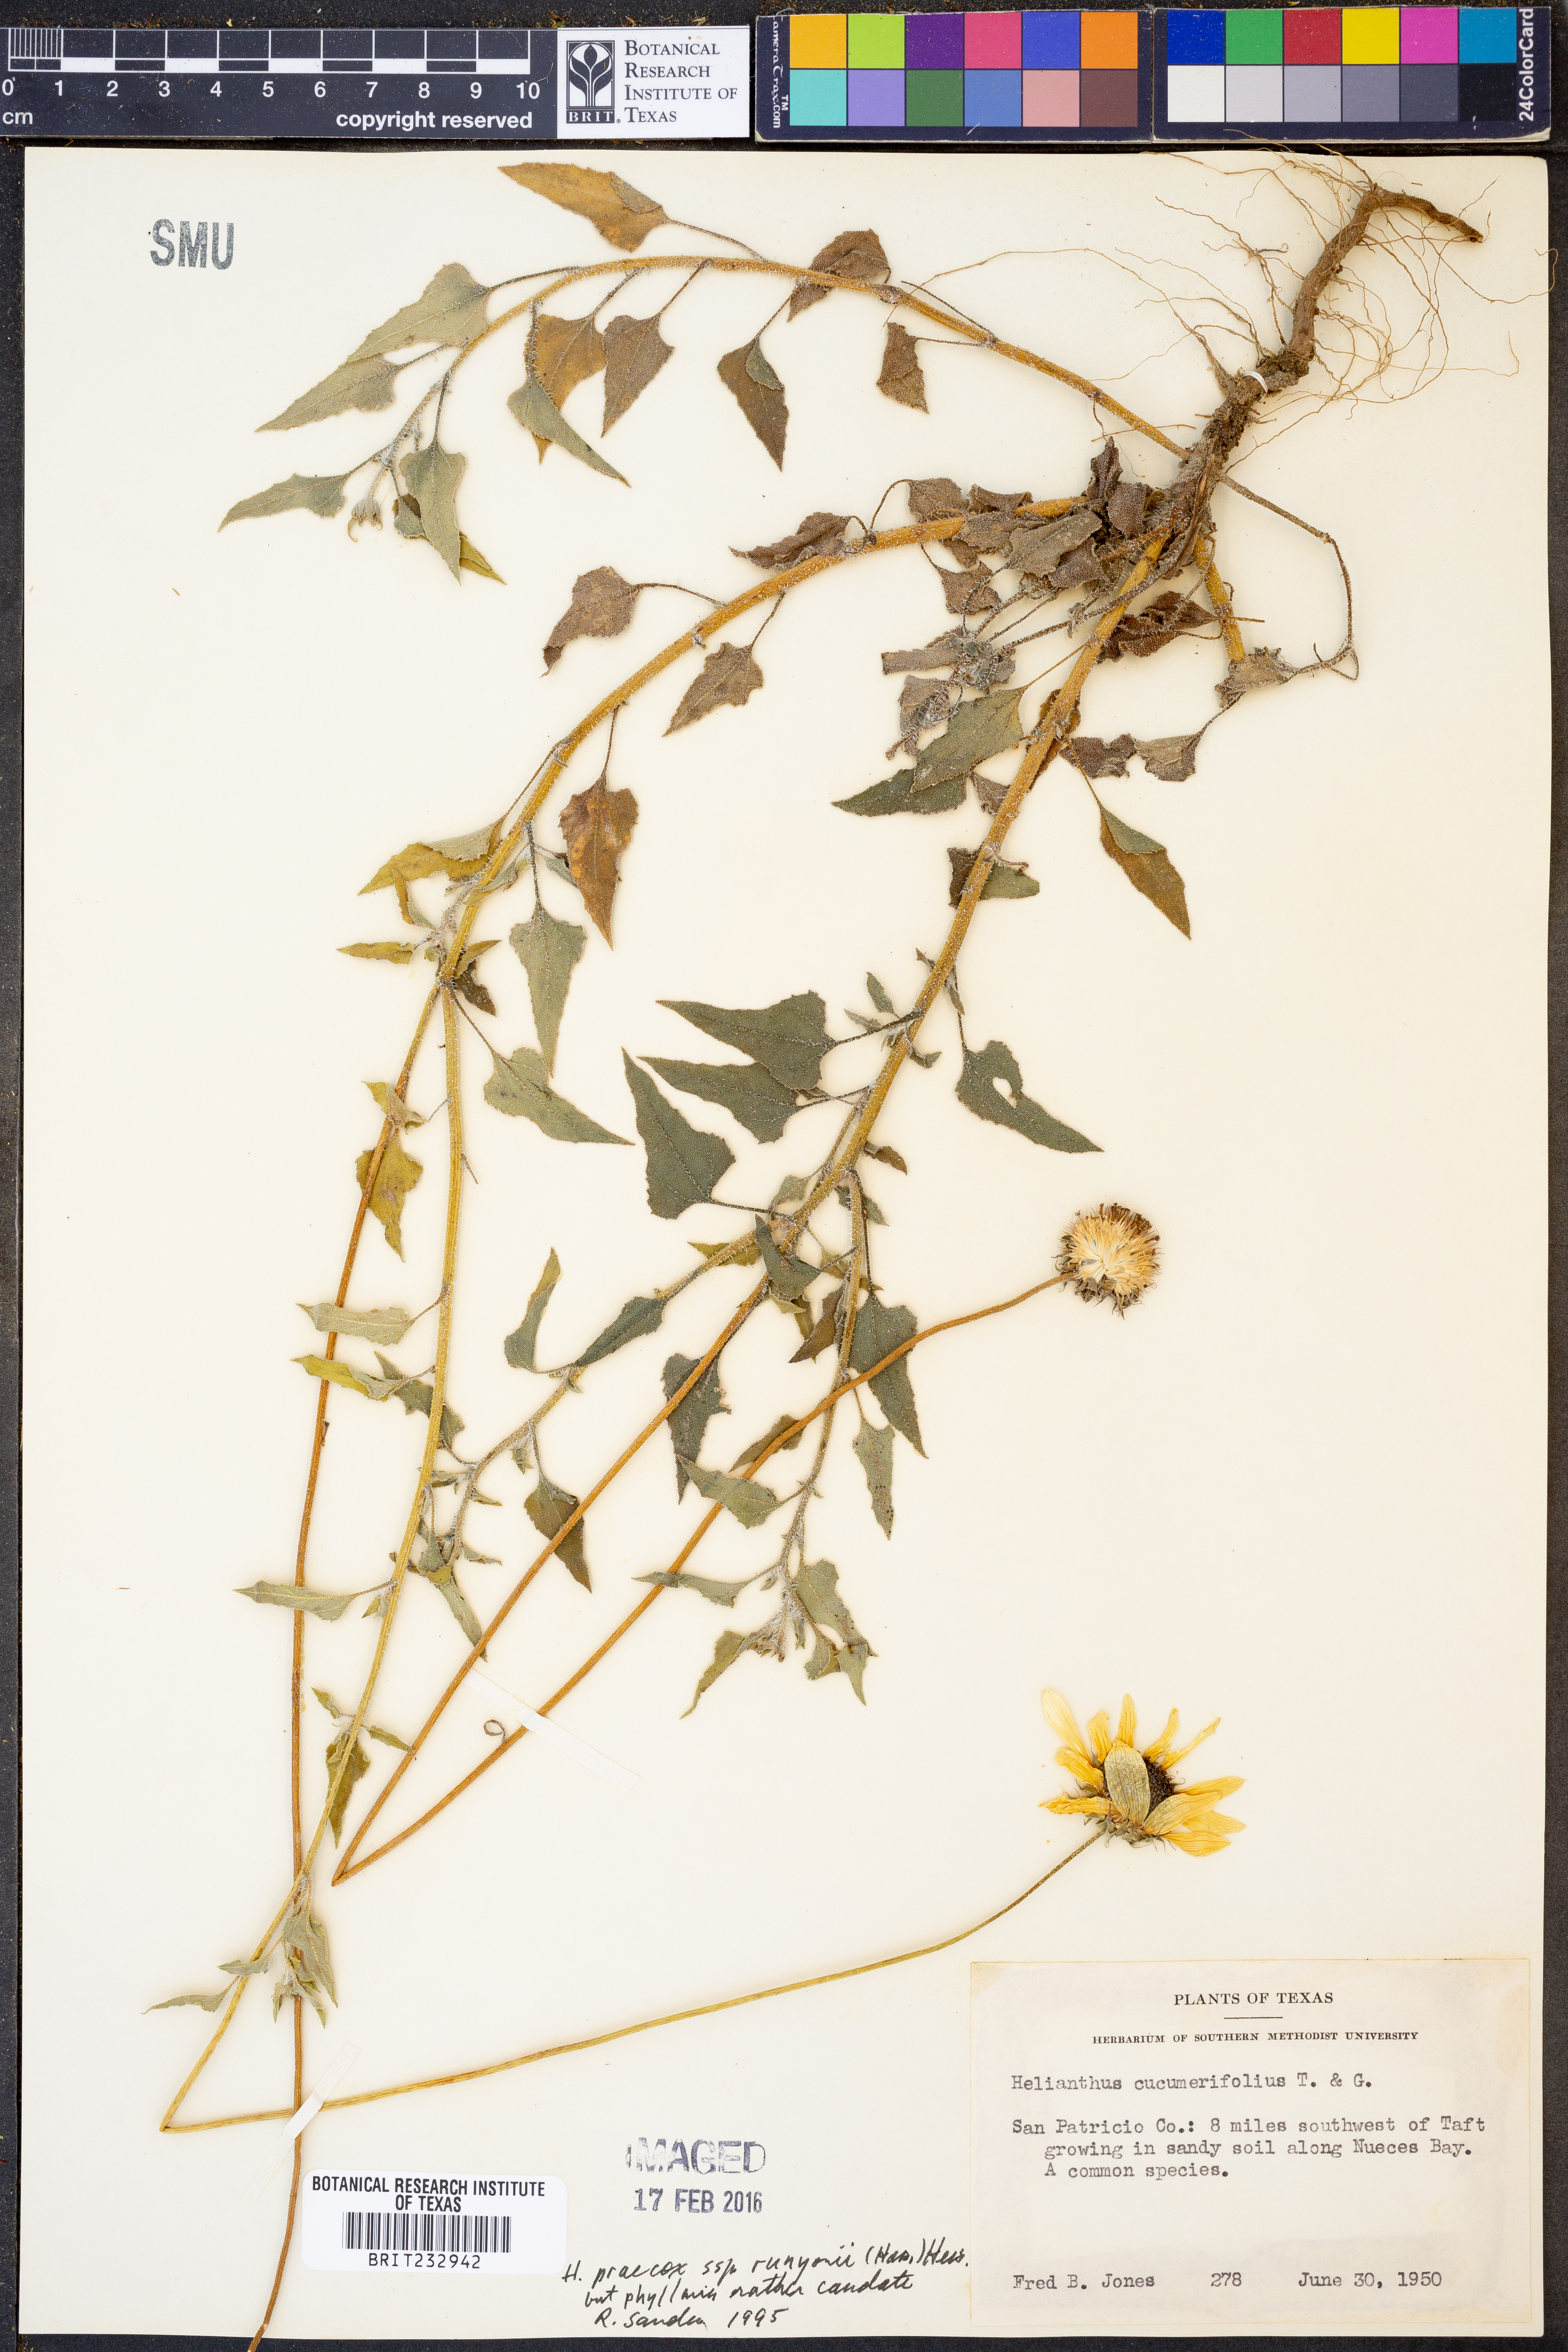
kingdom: Plantae
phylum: Tracheophyta
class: Magnoliopsida
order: Asterales
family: Asteraceae
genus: Helianthus
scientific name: Helianthus praecox
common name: Texas sunflower
